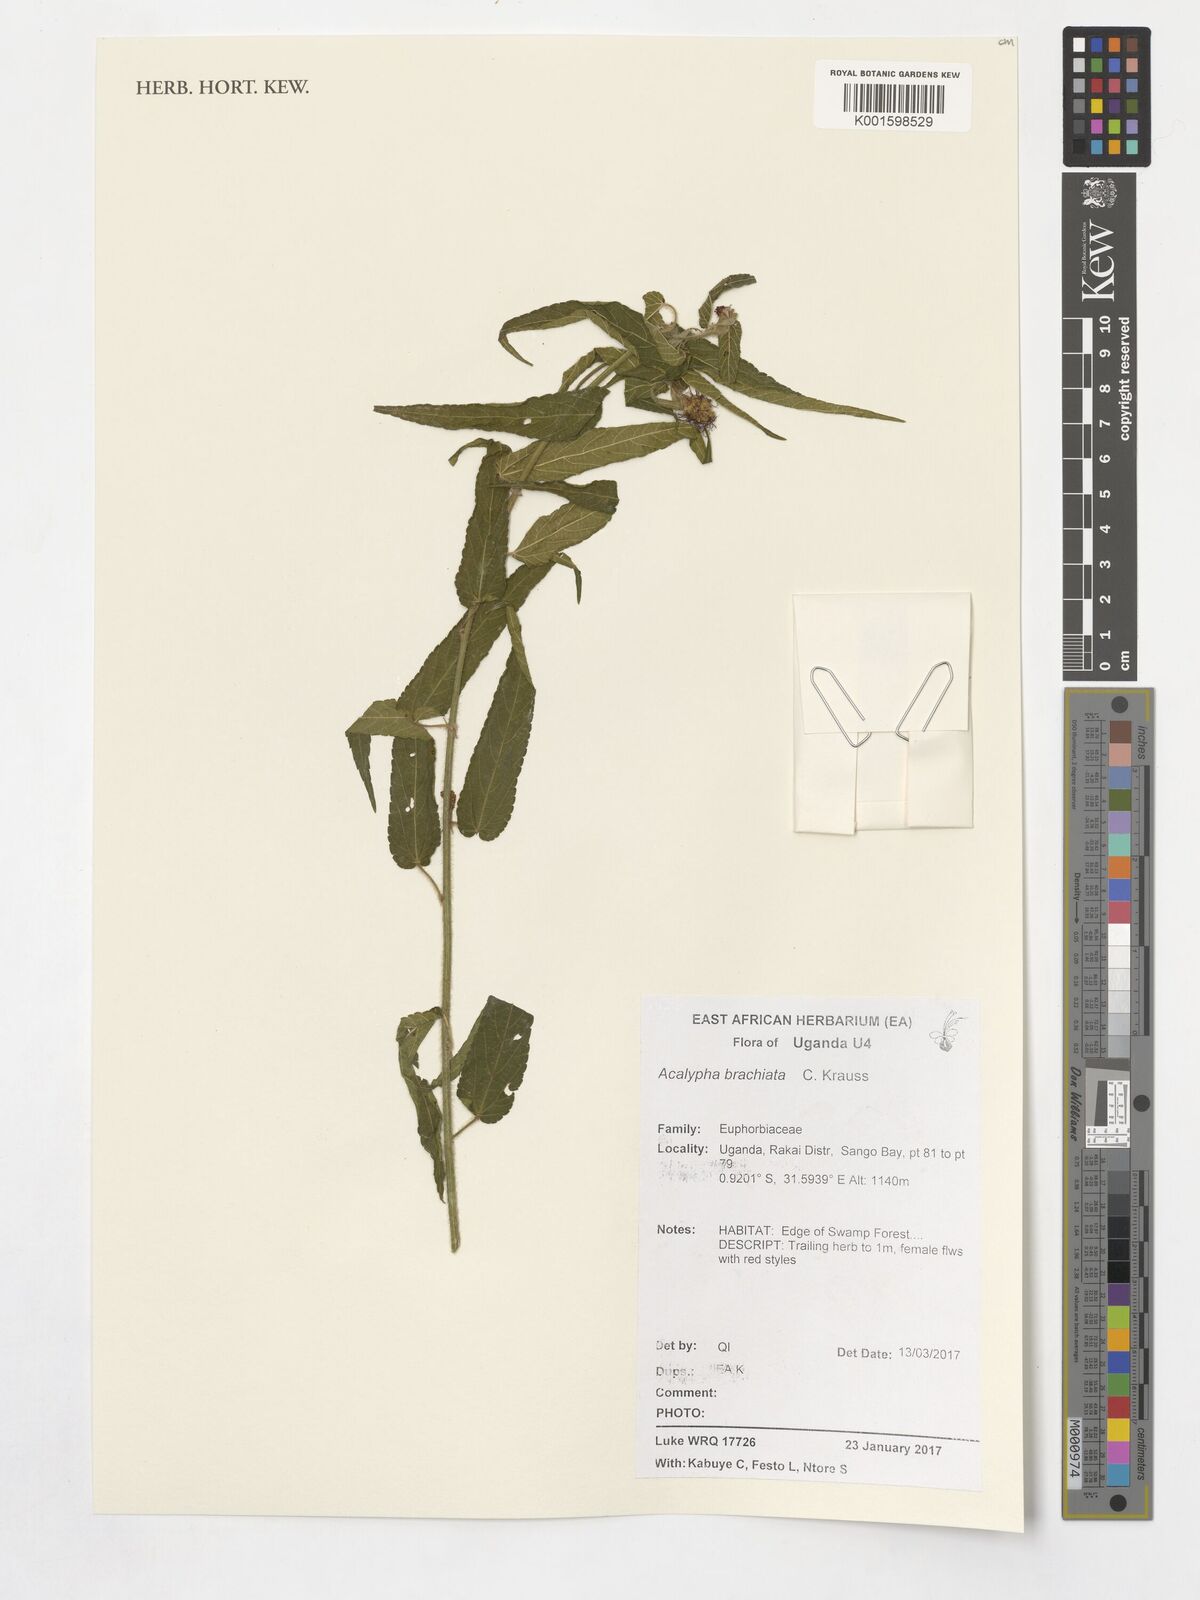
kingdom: Plantae
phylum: Tracheophyta
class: Magnoliopsida
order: Malpighiales
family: Euphorbiaceae
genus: Acalypha
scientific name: Acalypha petiolaris
